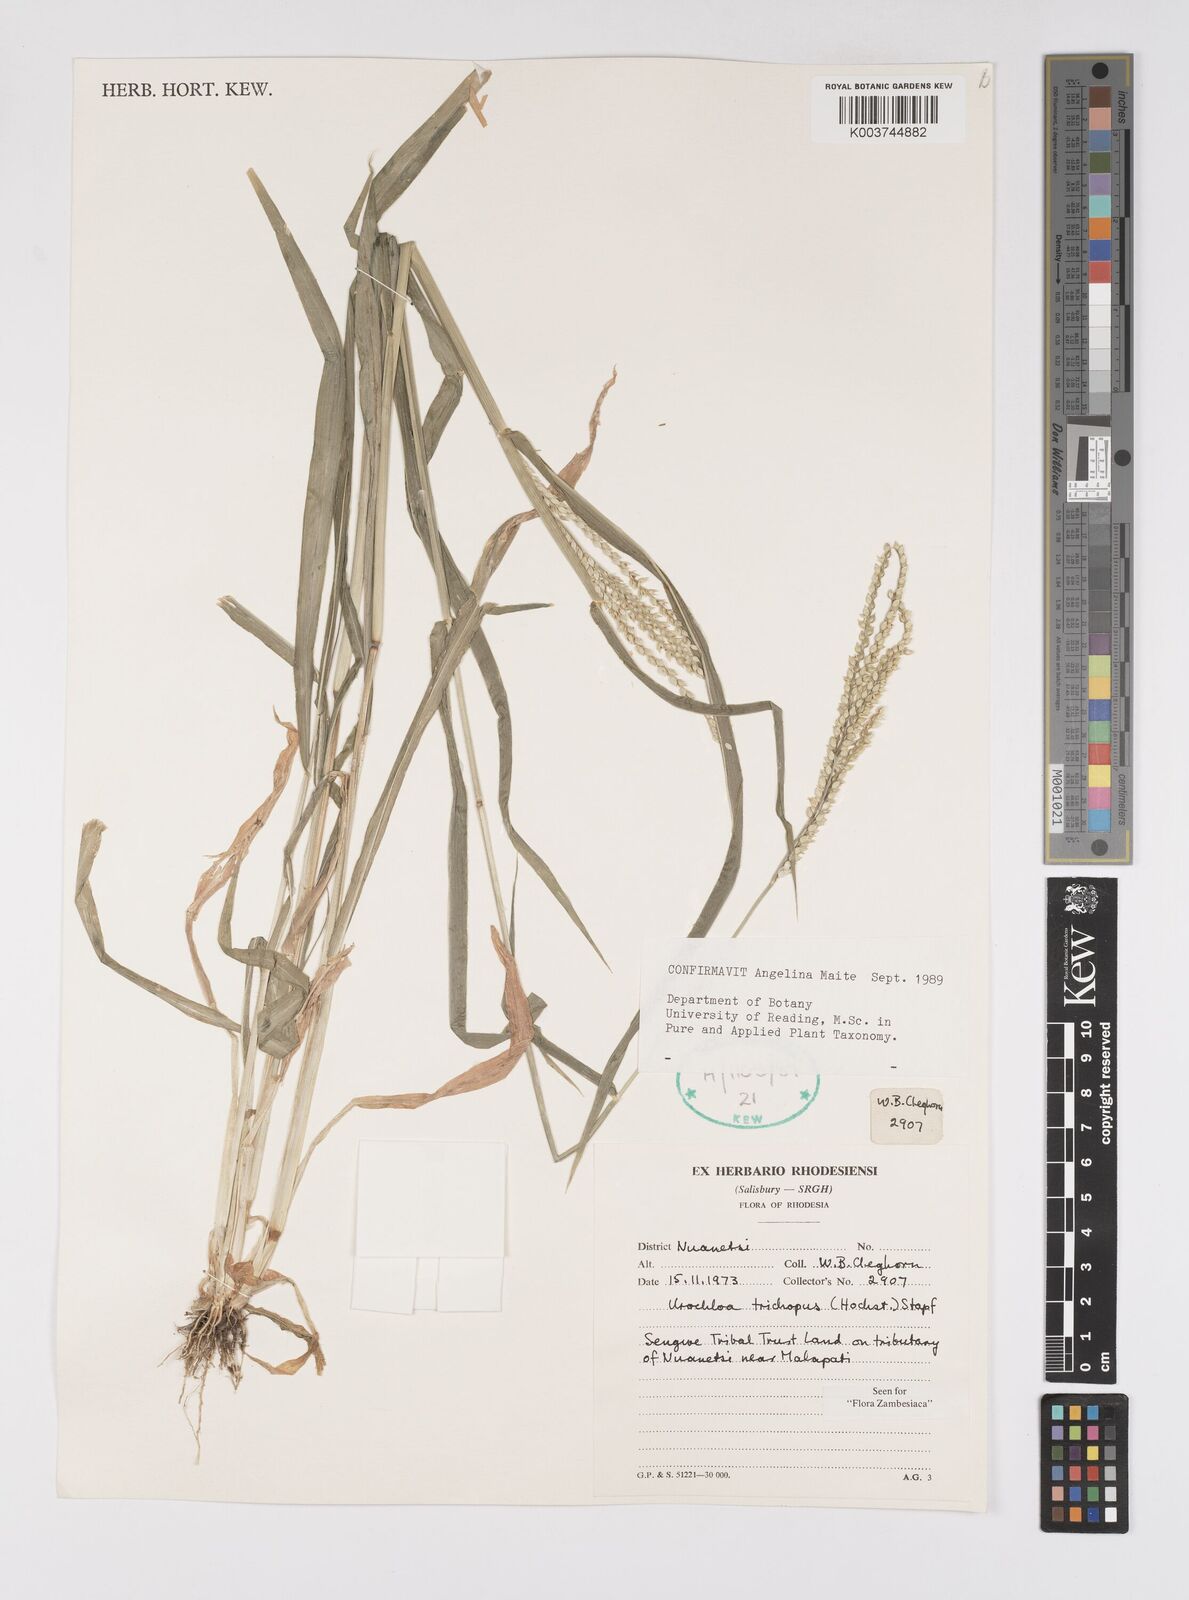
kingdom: Plantae
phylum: Tracheophyta
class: Liliopsida
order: Poales
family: Poaceae
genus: Urochloa
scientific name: Urochloa trichopus
